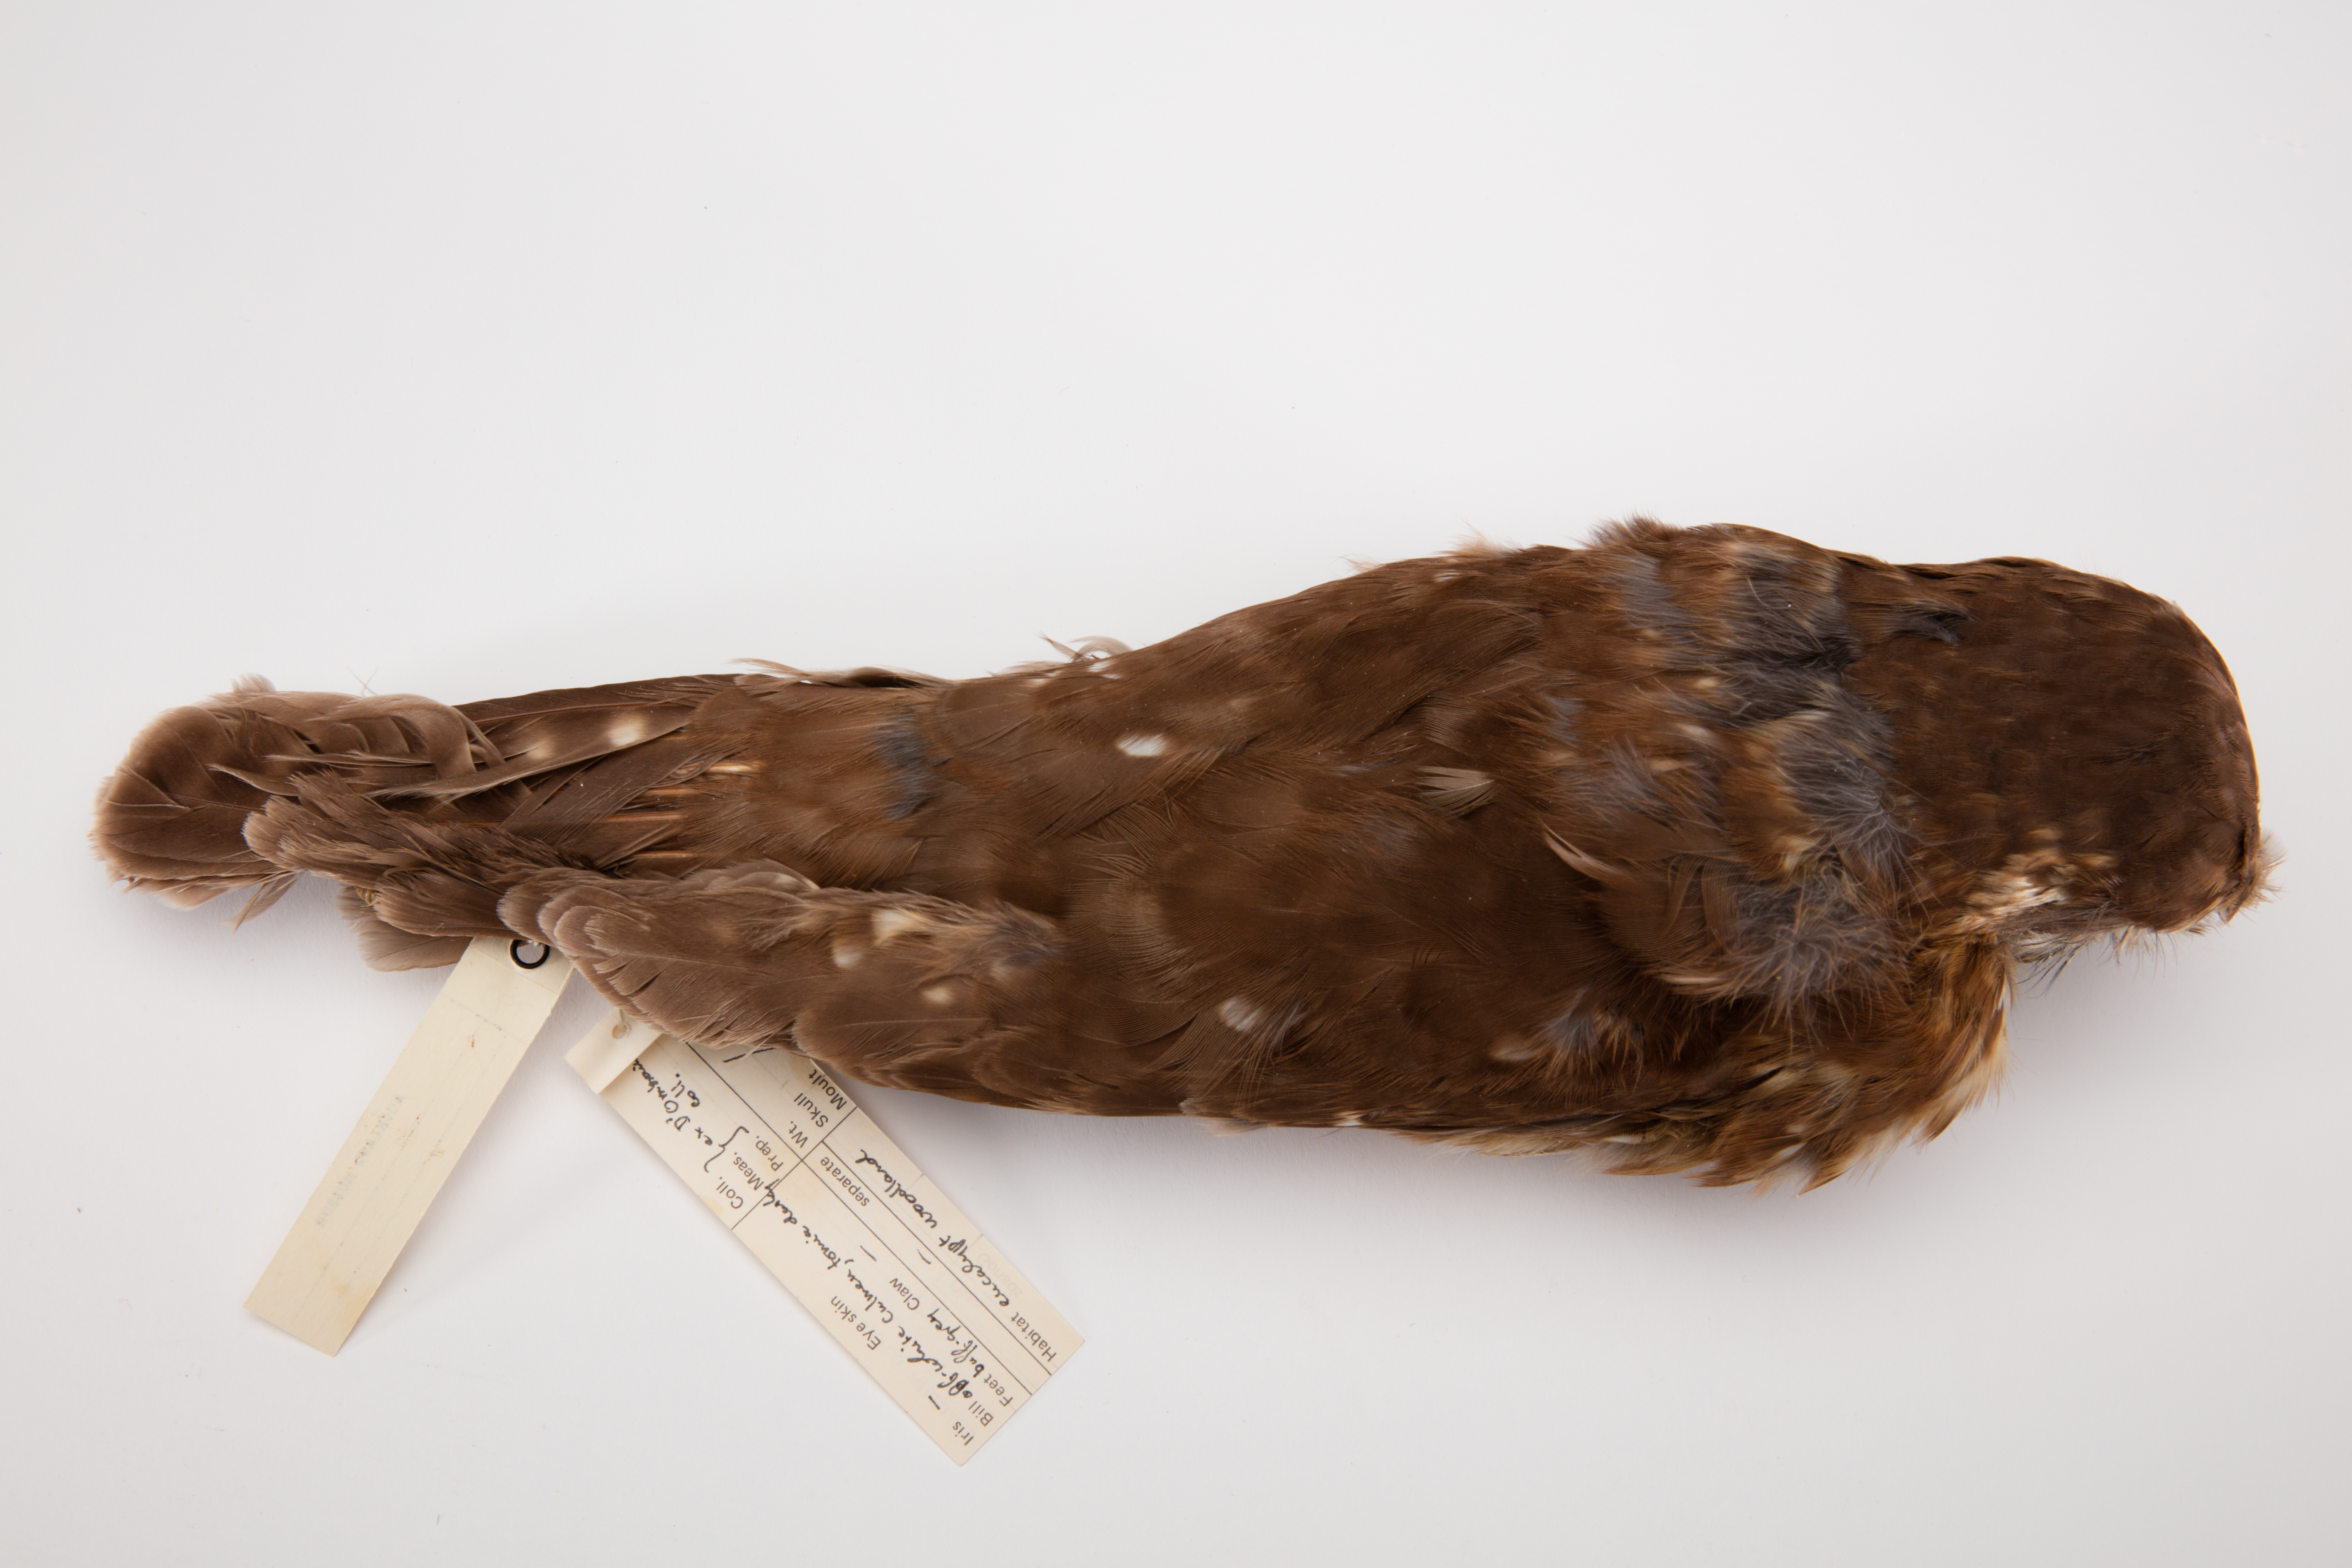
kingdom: Animalia
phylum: Chordata
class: Aves
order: Strigiformes
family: Strigidae
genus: Ninox
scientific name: Ninox novaeseelandiae
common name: Morepork
